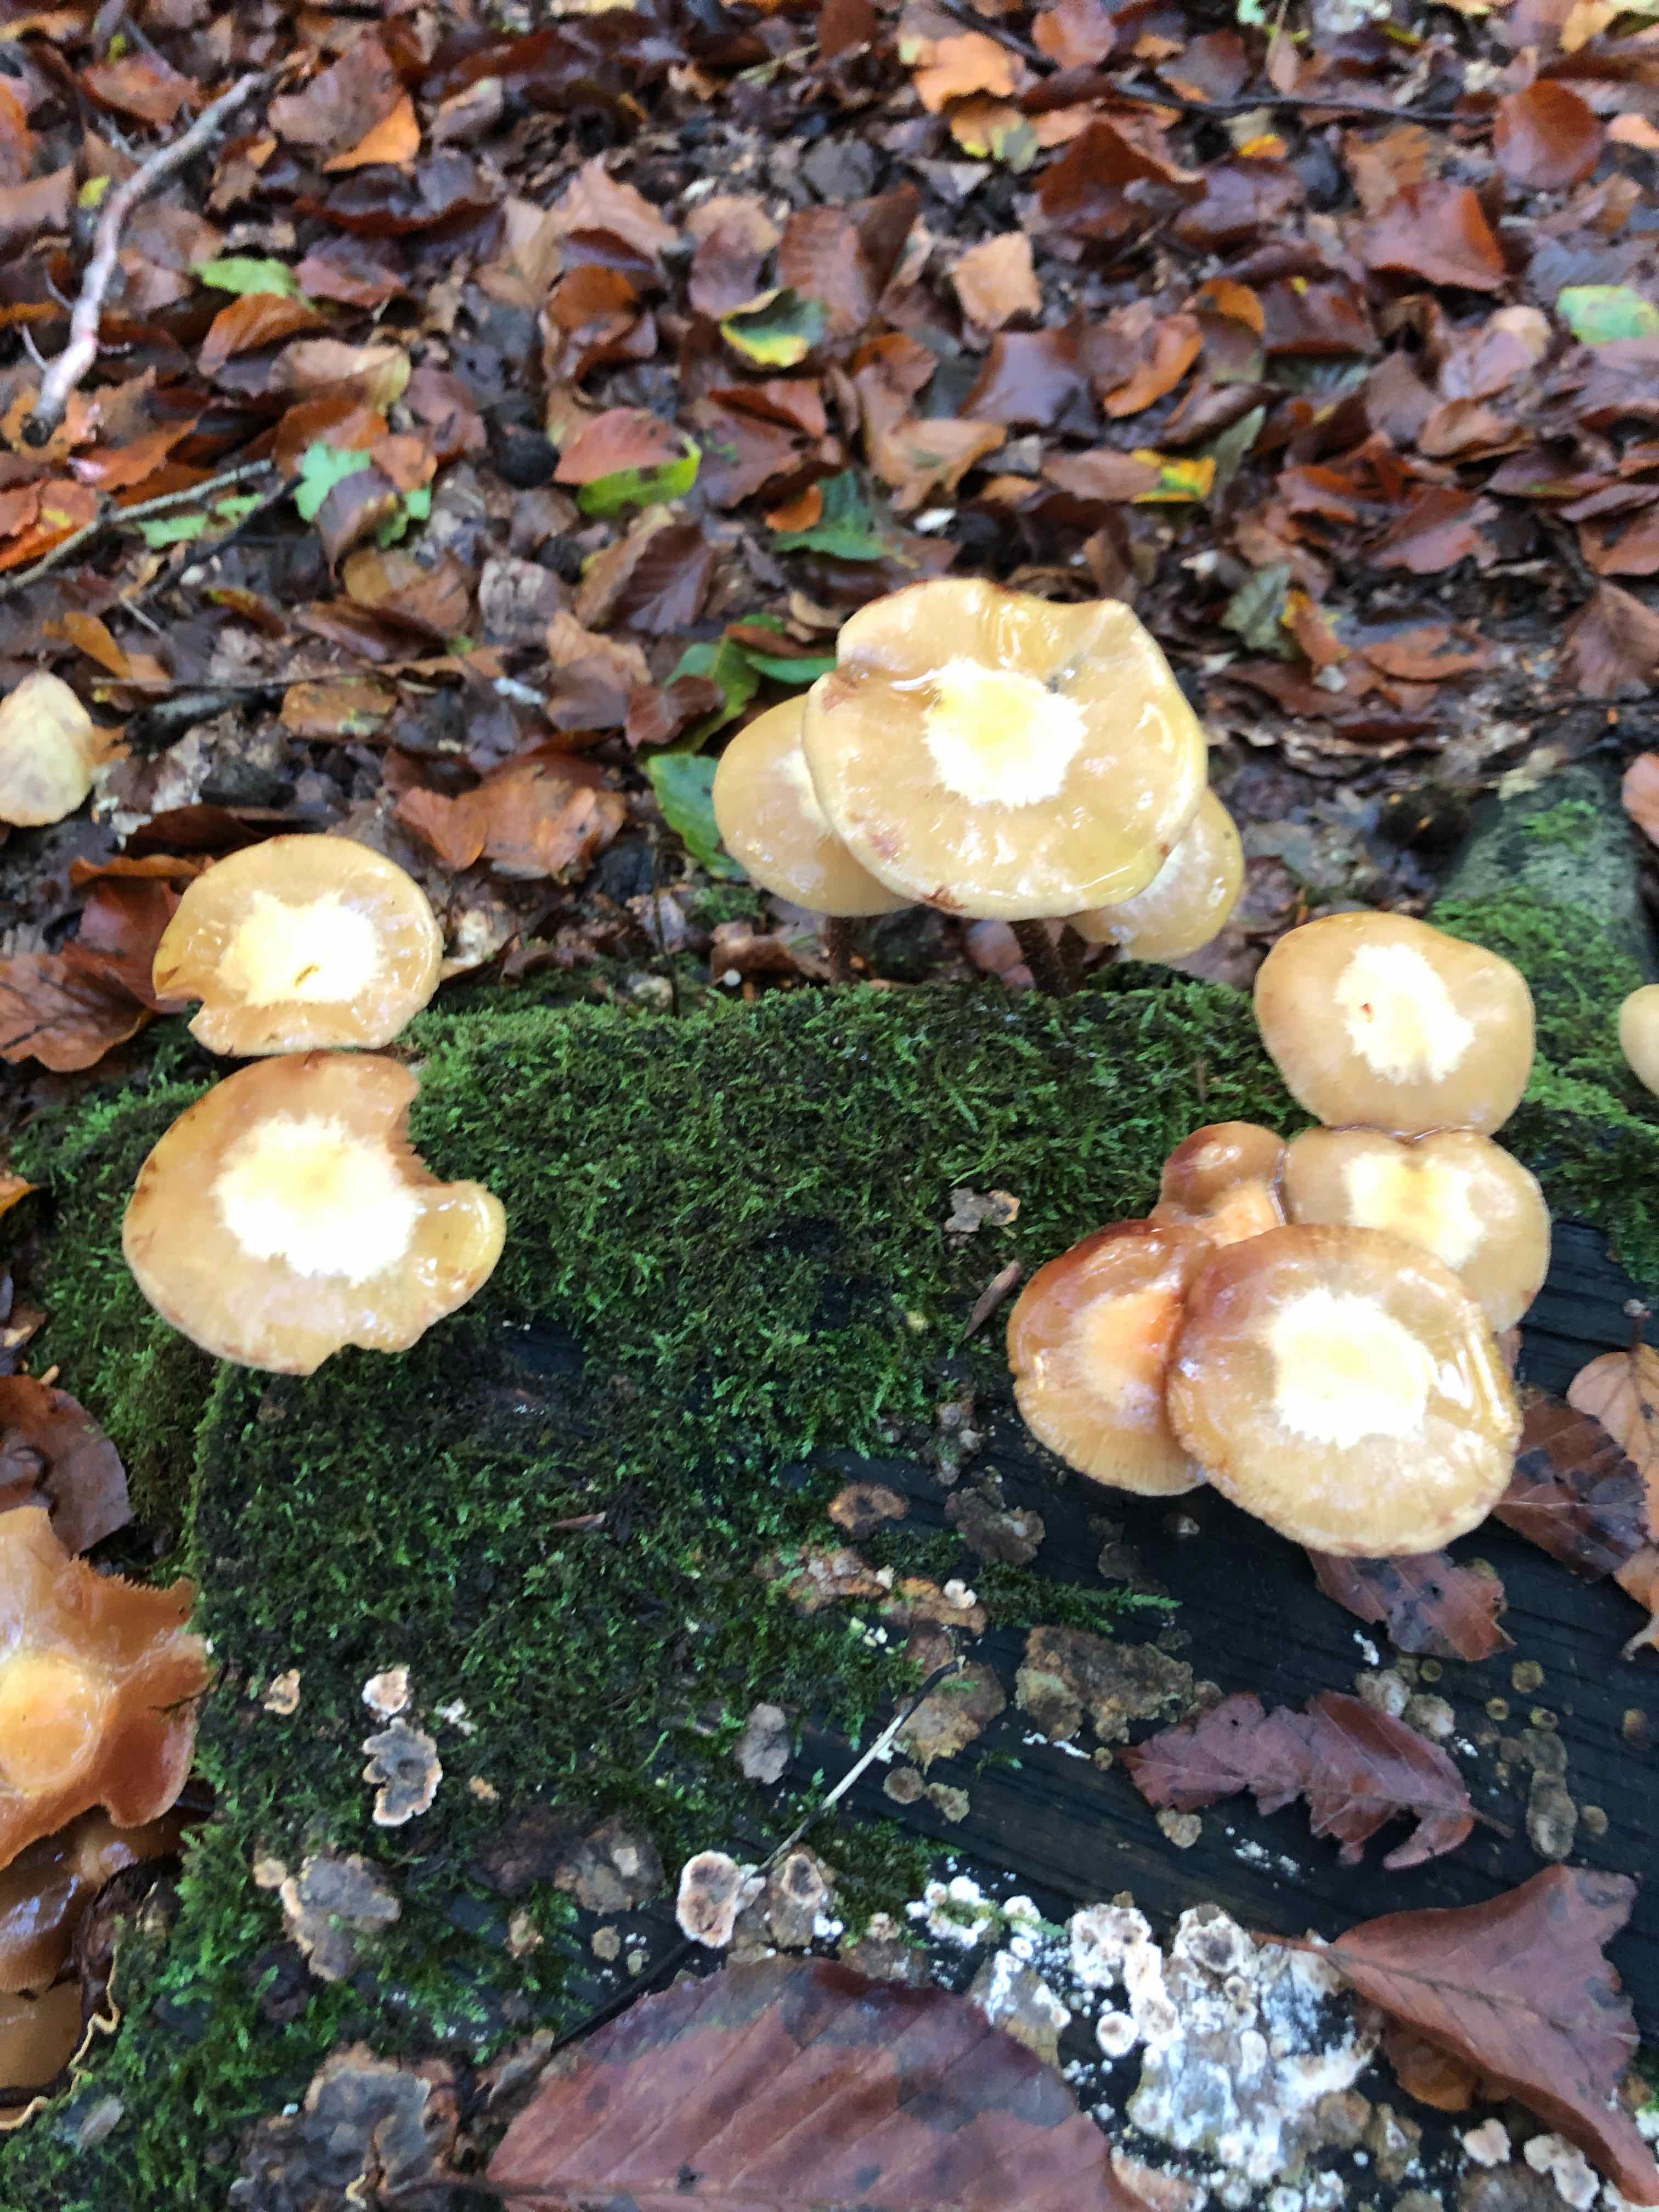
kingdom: Fungi
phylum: Basidiomycota
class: Agaricomycetes
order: Agaricales
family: Strophariaceae
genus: Kuehneromyces
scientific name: Kuehneromyces mutabilis
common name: foranderlig skælhat
